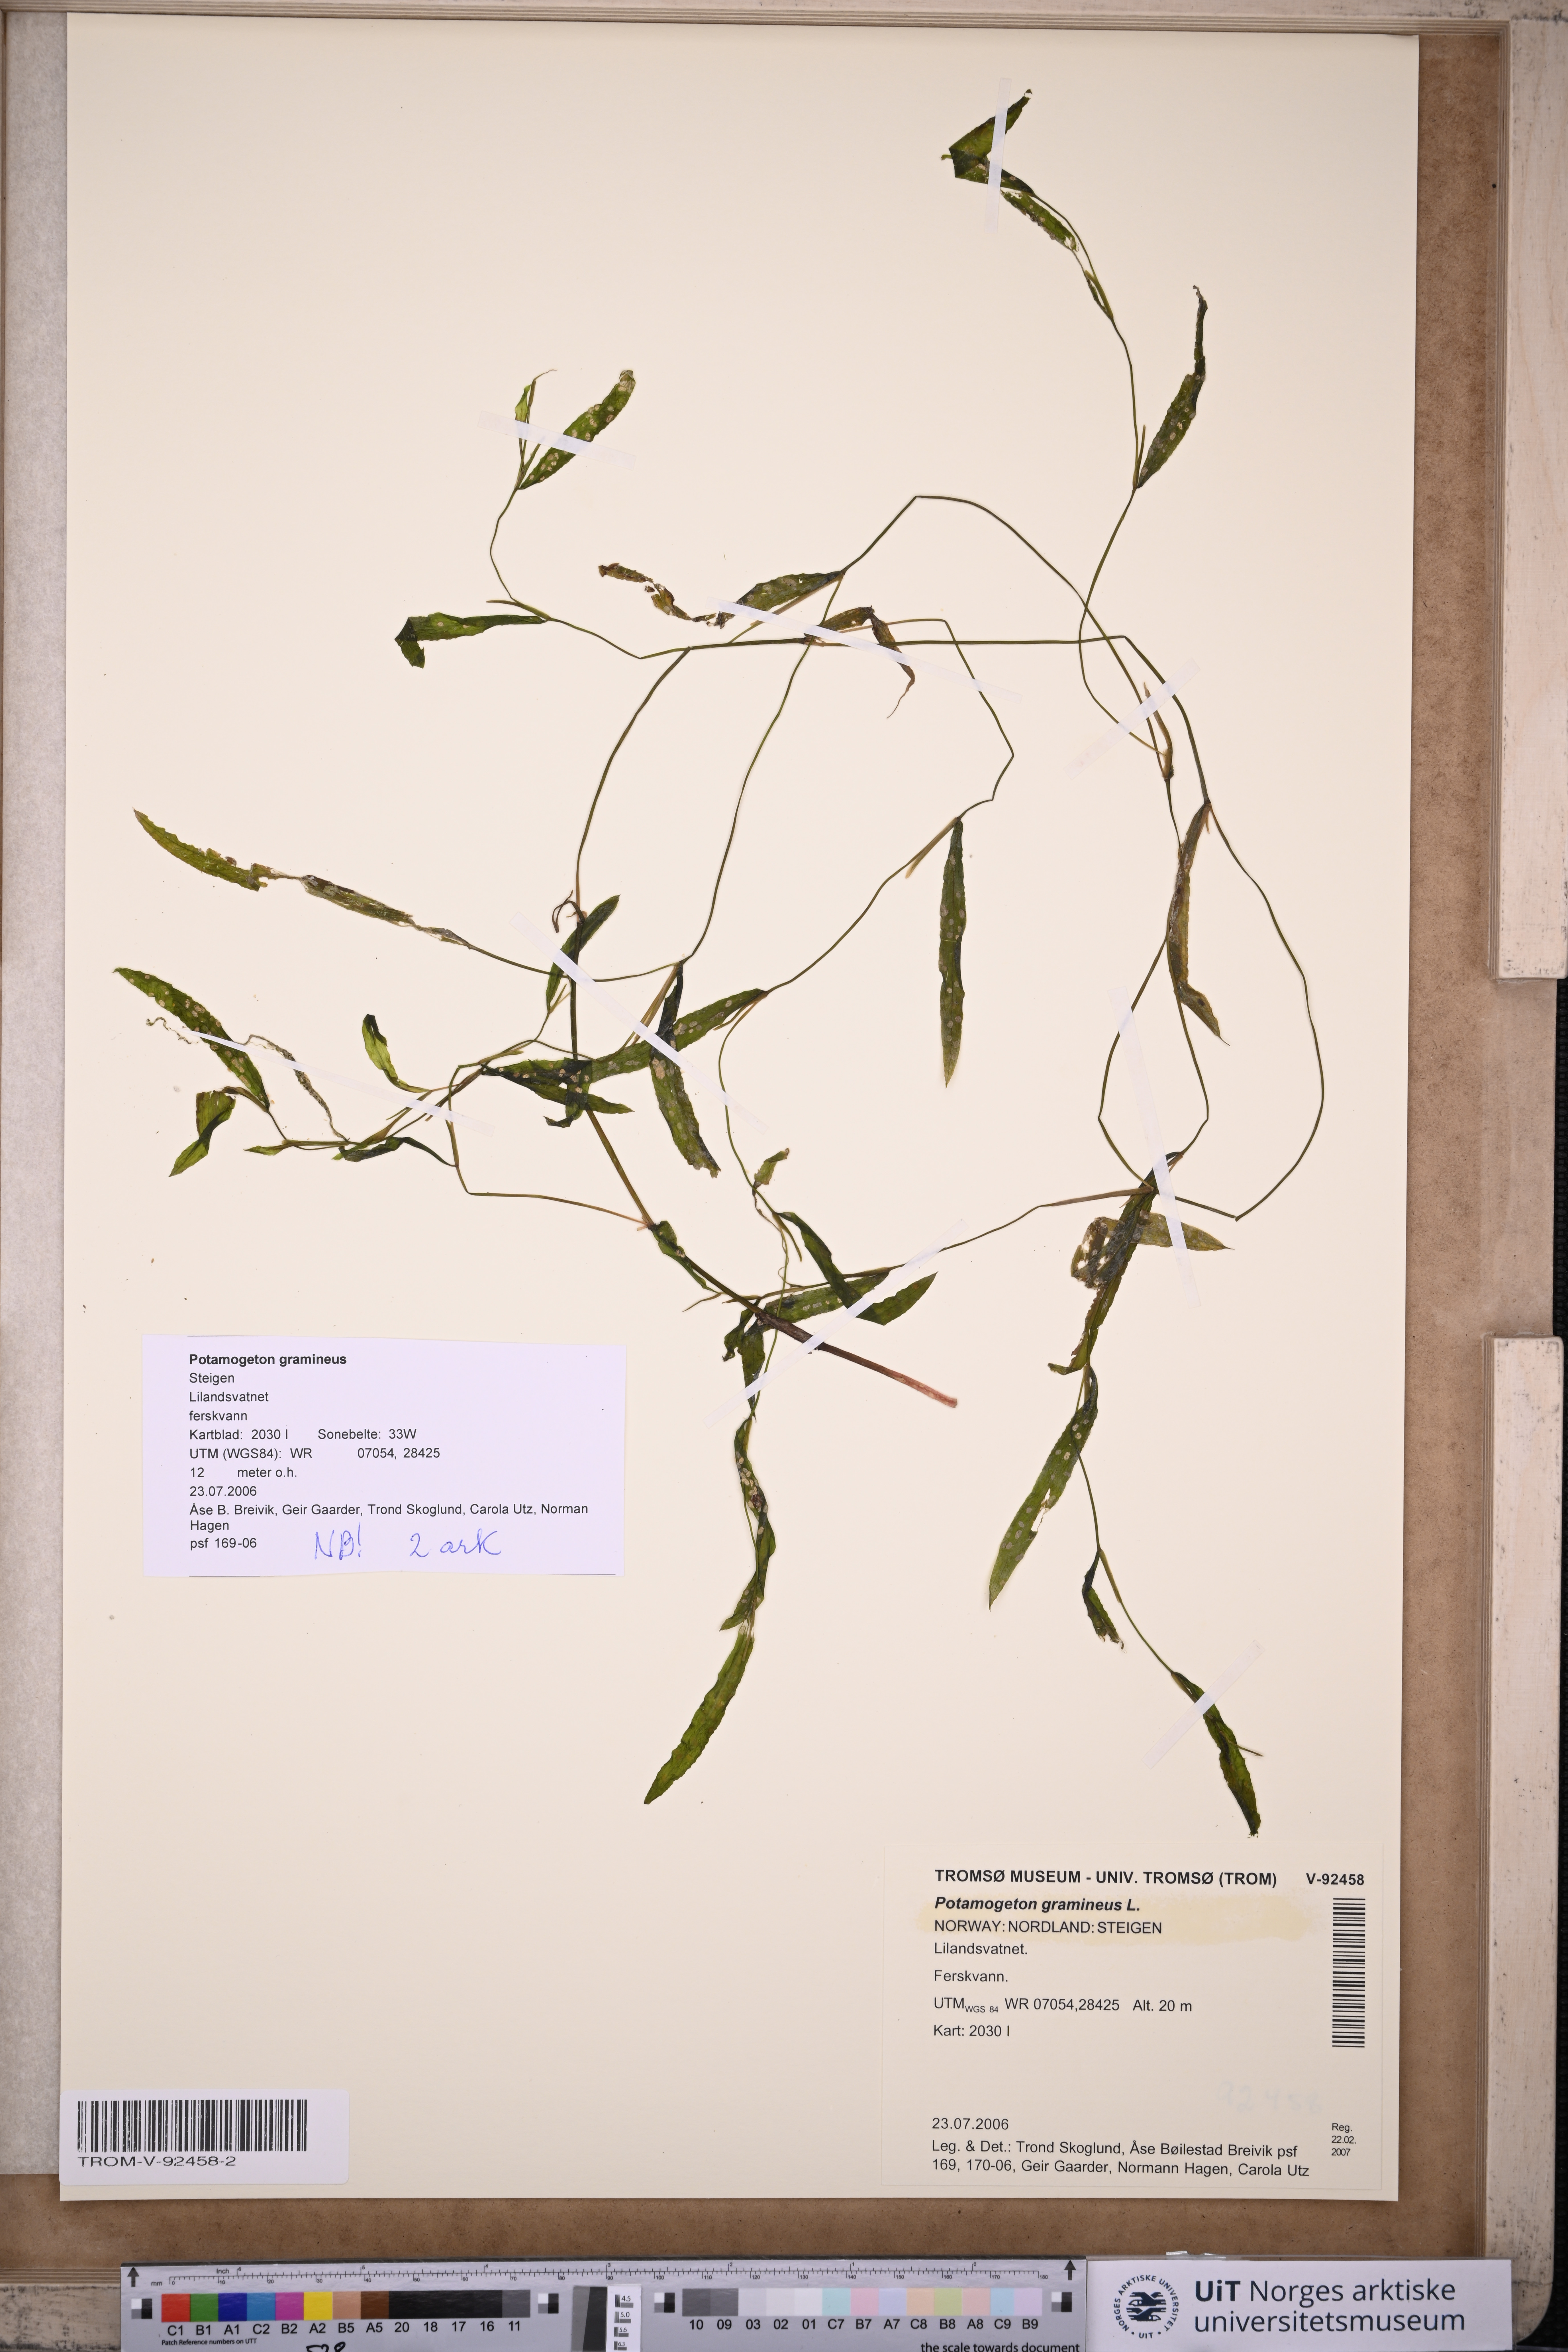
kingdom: Plantae
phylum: Tracheophyta
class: Liliopsida
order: Alismatales
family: Potamogetonaceae
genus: Potamogeton
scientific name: Potamogeton gramineus
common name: Various-leaved pondweed
